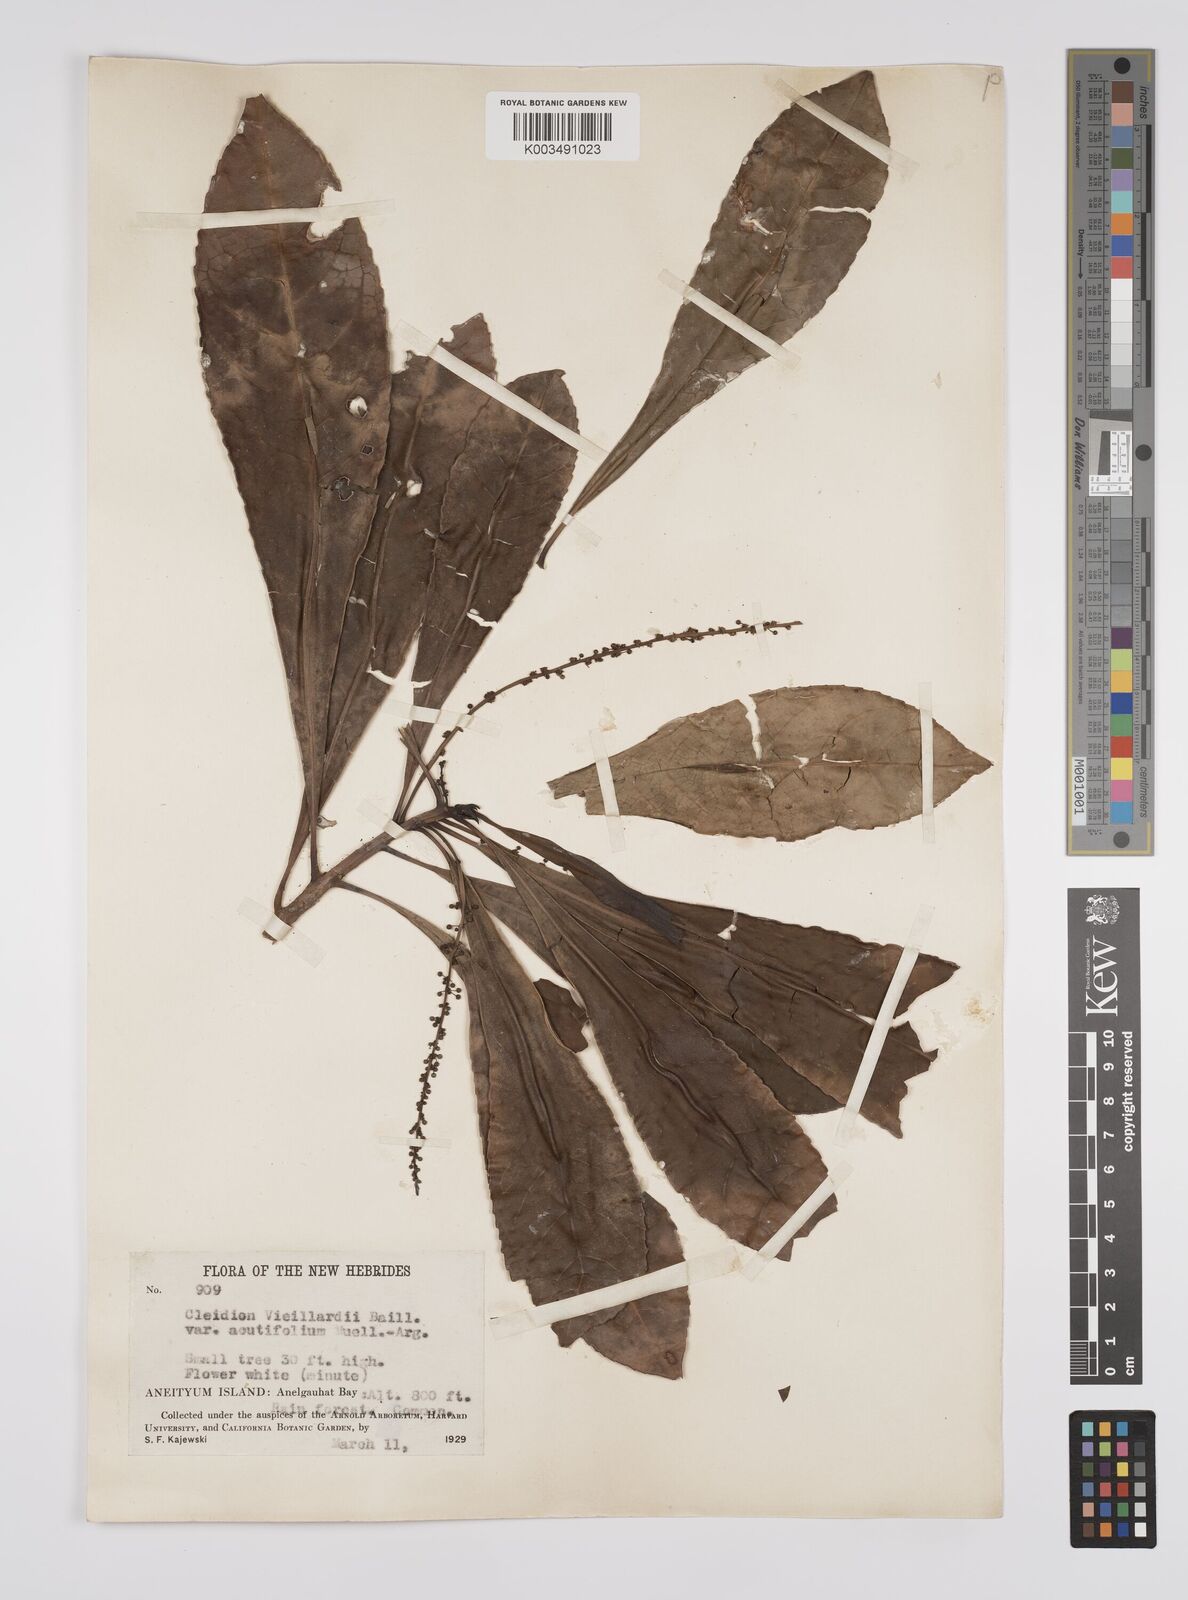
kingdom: Plantae
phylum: Tracheophyta
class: Magnoliopsida
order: Malpighiales
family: Euphorbiaceae
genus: Cleidion
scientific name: Cleidion vieillardii
